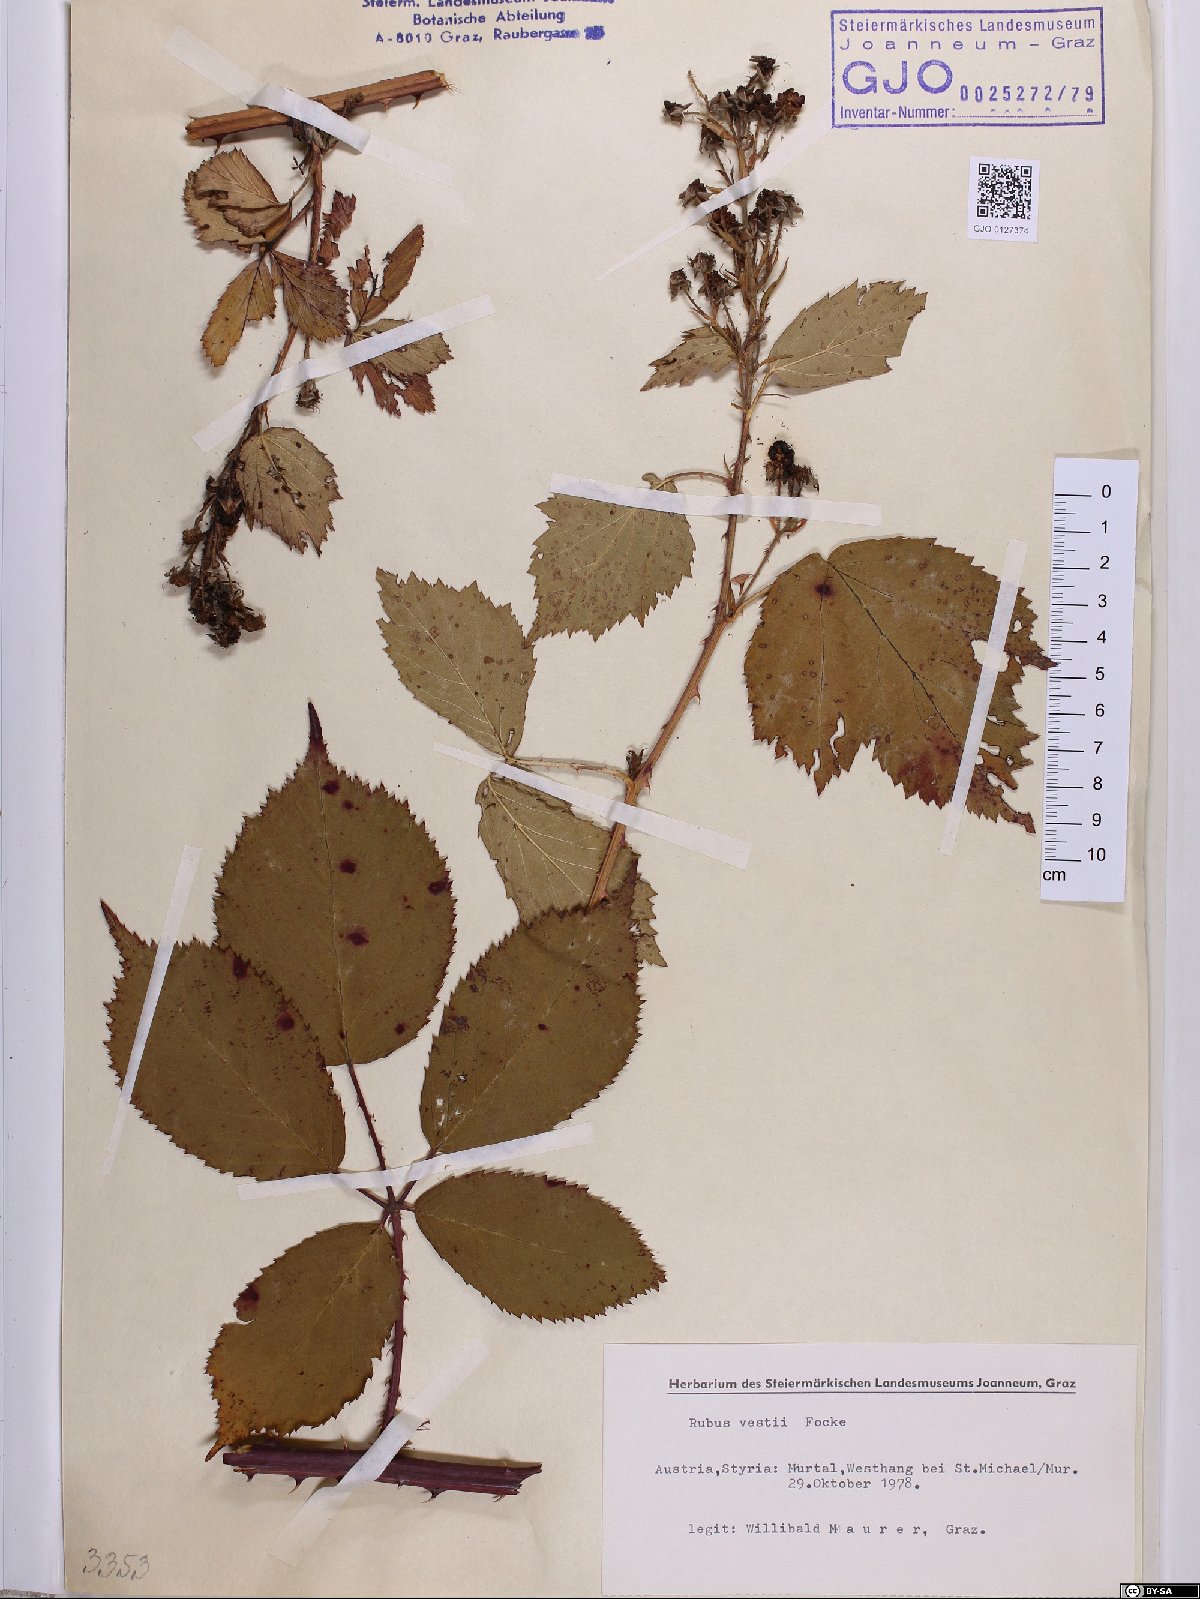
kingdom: Plantae
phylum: Tracheophyta
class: Magnoliopsida
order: Rosales
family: Rosaceae
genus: Rubus
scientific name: Rubus constrictus
